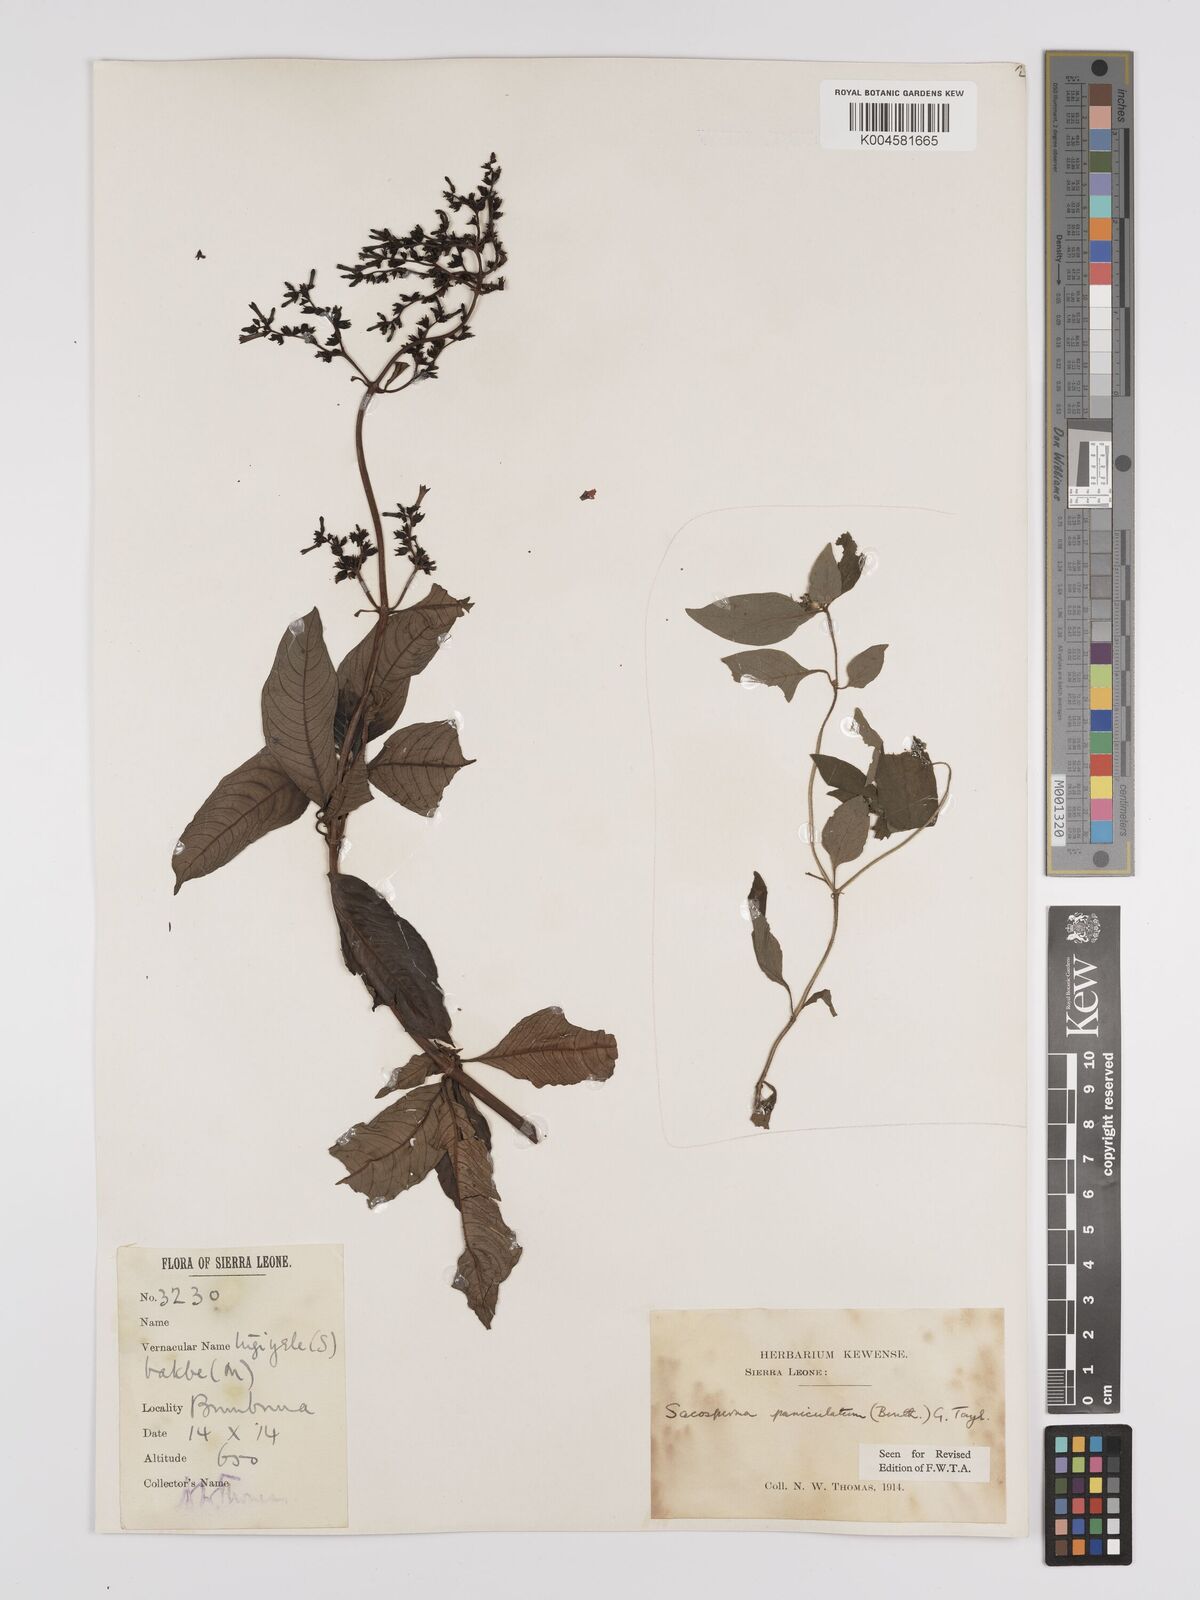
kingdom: Plantae
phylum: Tracheophyta
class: Magnoliopsida
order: Gentianales
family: Rubiaceae
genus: Sacosperma
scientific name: Sacosperma paniculatum
